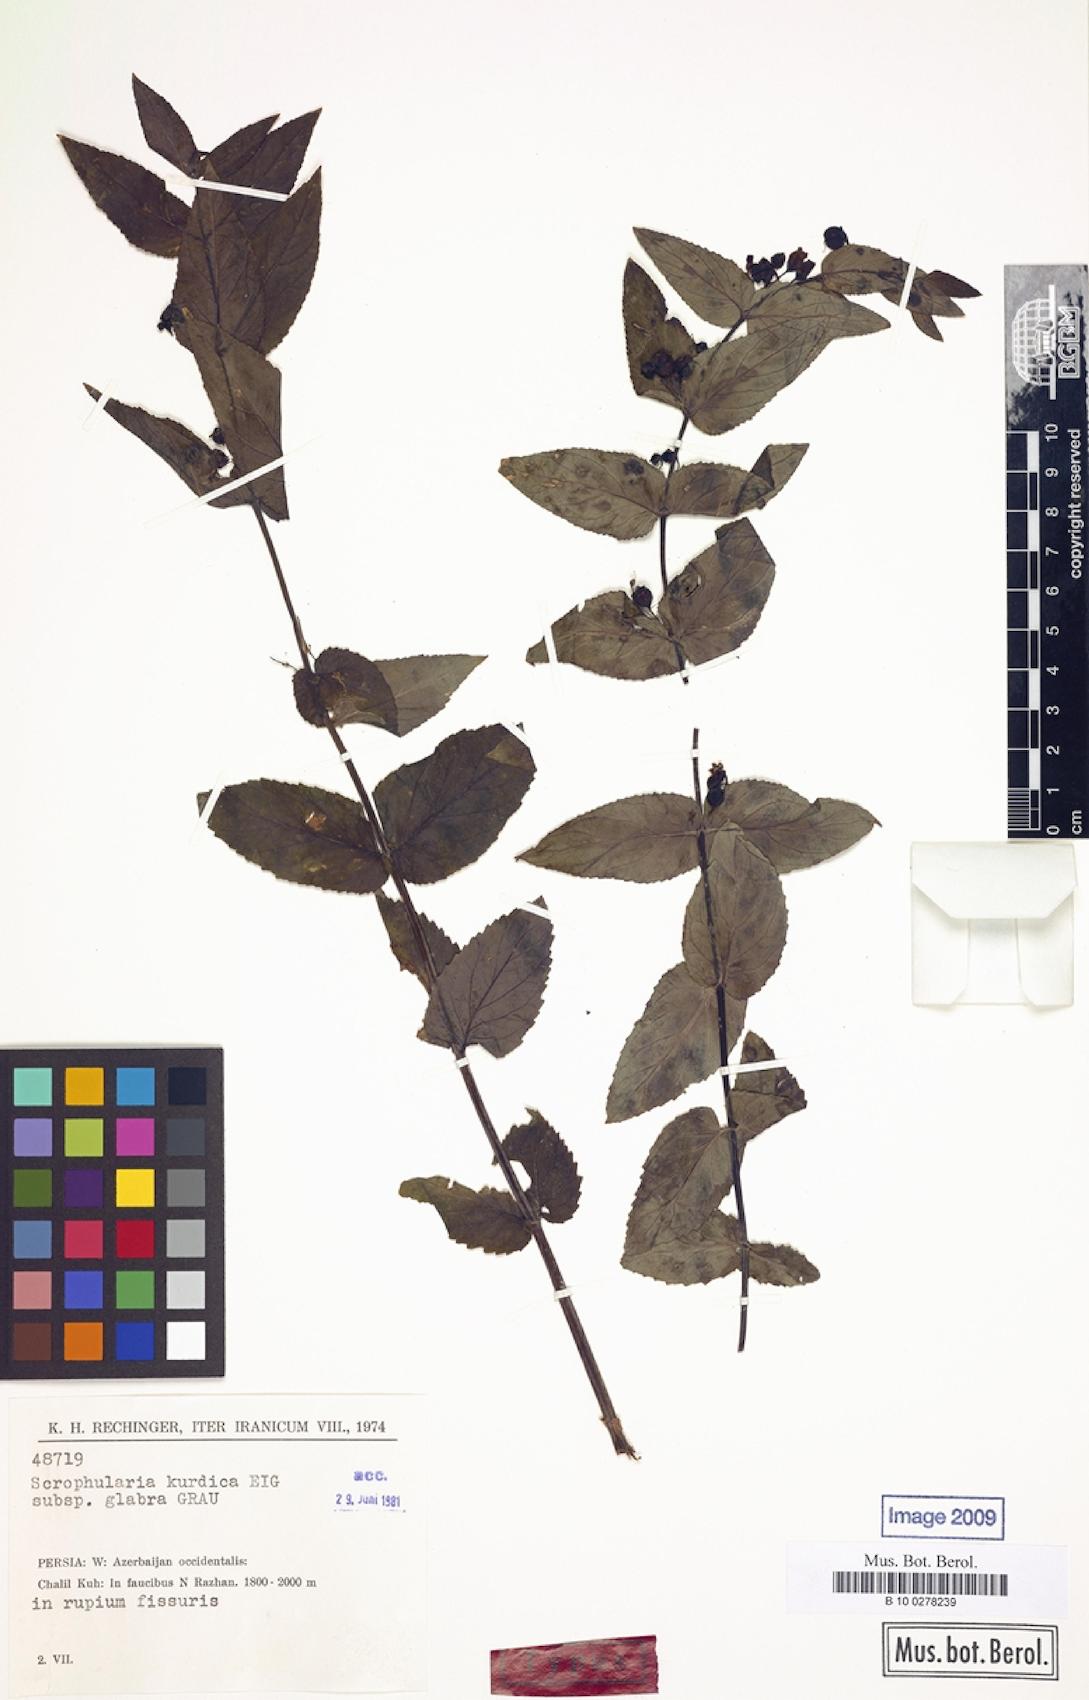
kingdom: Plantae
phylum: Tracheophyta
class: Magnoliopsida
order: Lamiales
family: Scrophulariaceae
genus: Scrophularia
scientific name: Scrophularia kurdica
